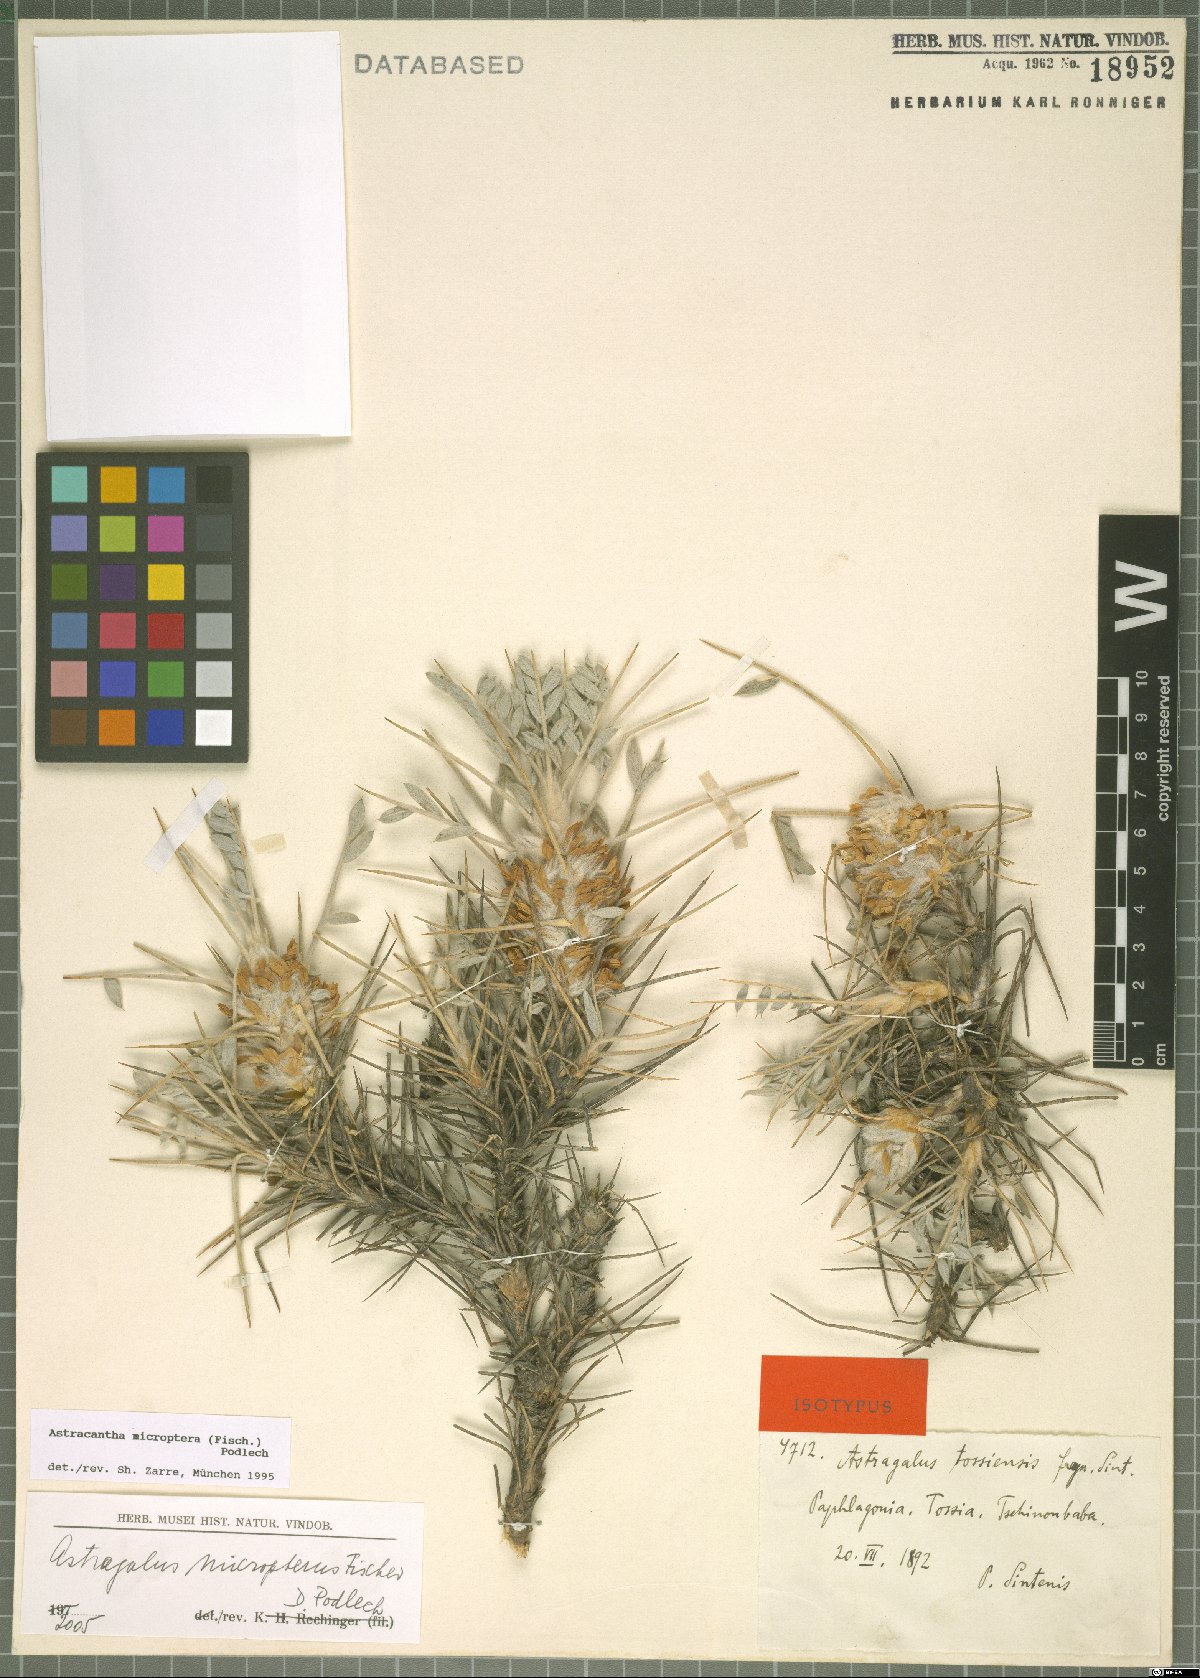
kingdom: Plantae
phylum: Tracheophyta
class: Magnoliopsida
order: Fabales
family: Fabaceae
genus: Astragalus
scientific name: Astragalus micropterus
